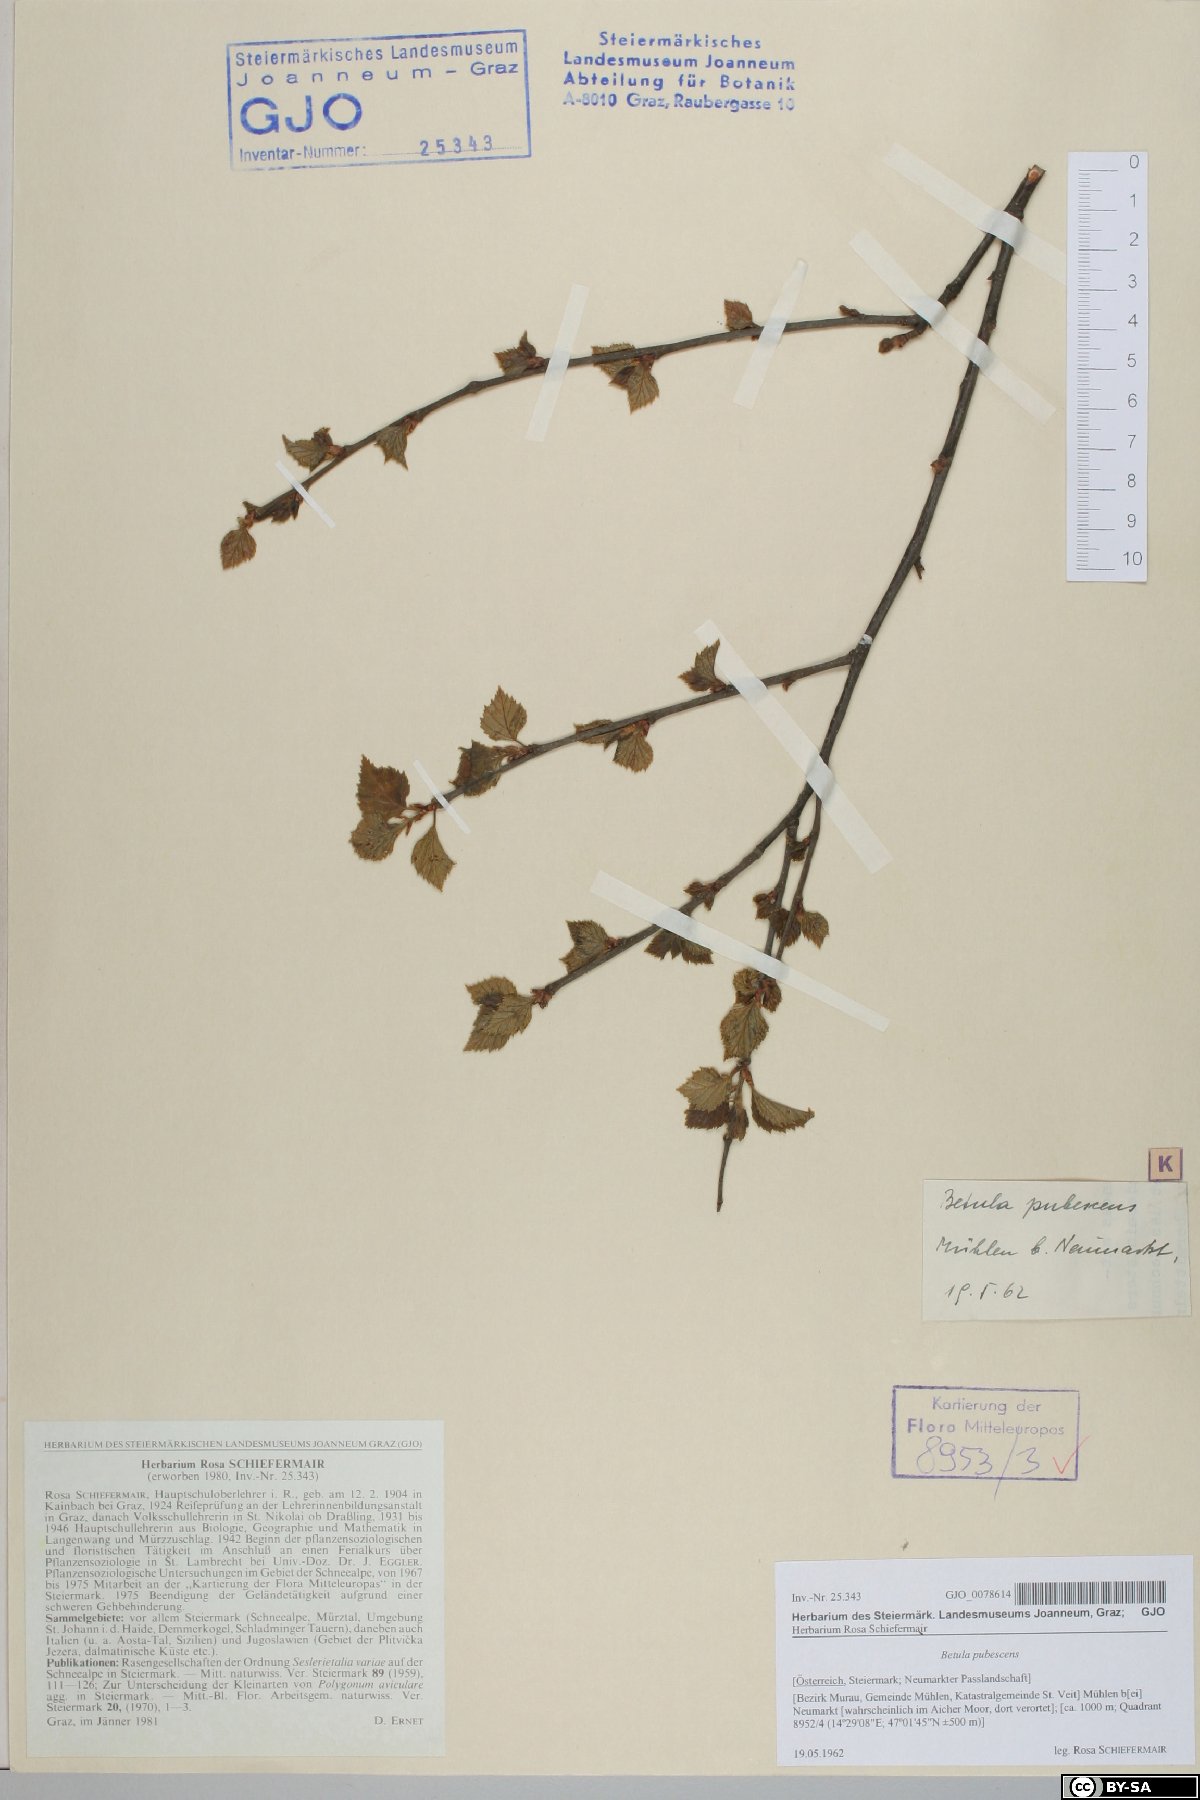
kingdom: Plantae
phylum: Tracheophyta
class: Magnoliopsida
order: Fagales
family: Betulaceae
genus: Betula
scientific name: Betula pubescens
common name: Downy birch
